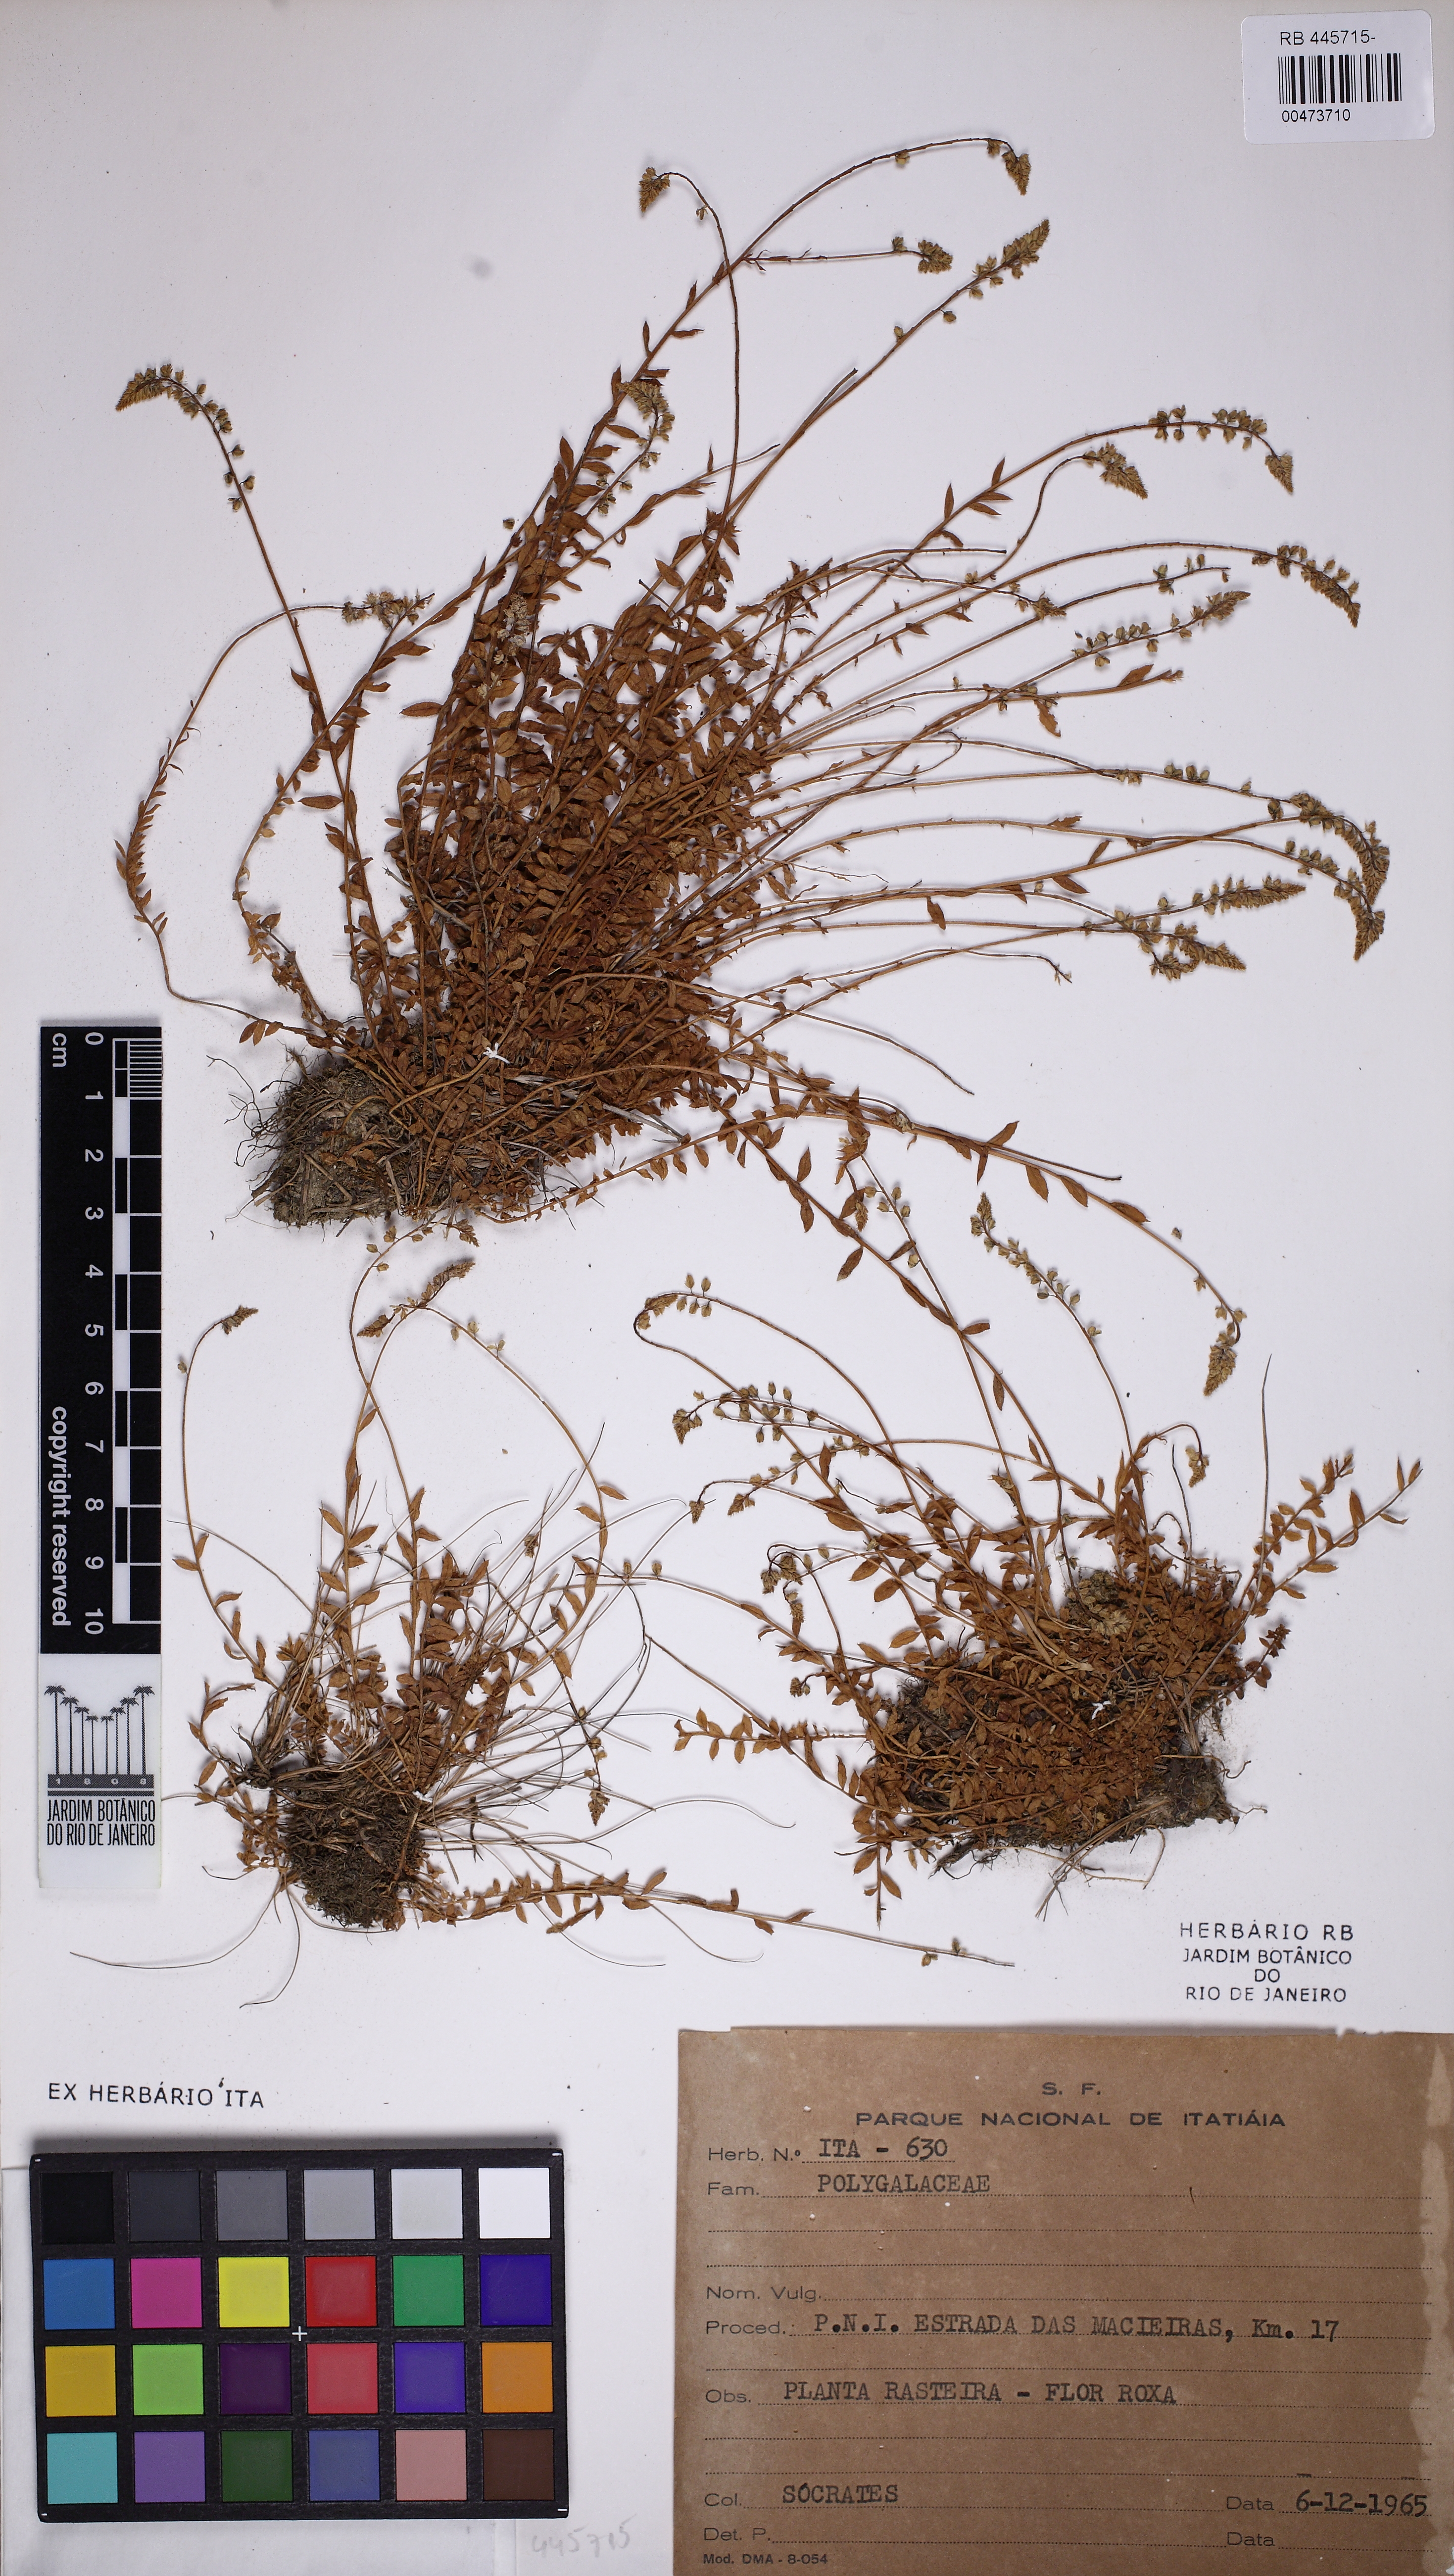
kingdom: Plantae
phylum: Tracheophyta
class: Magnoliopsida
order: Fabales
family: Polygalaceae
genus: Polygala
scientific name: Polygala campestris
